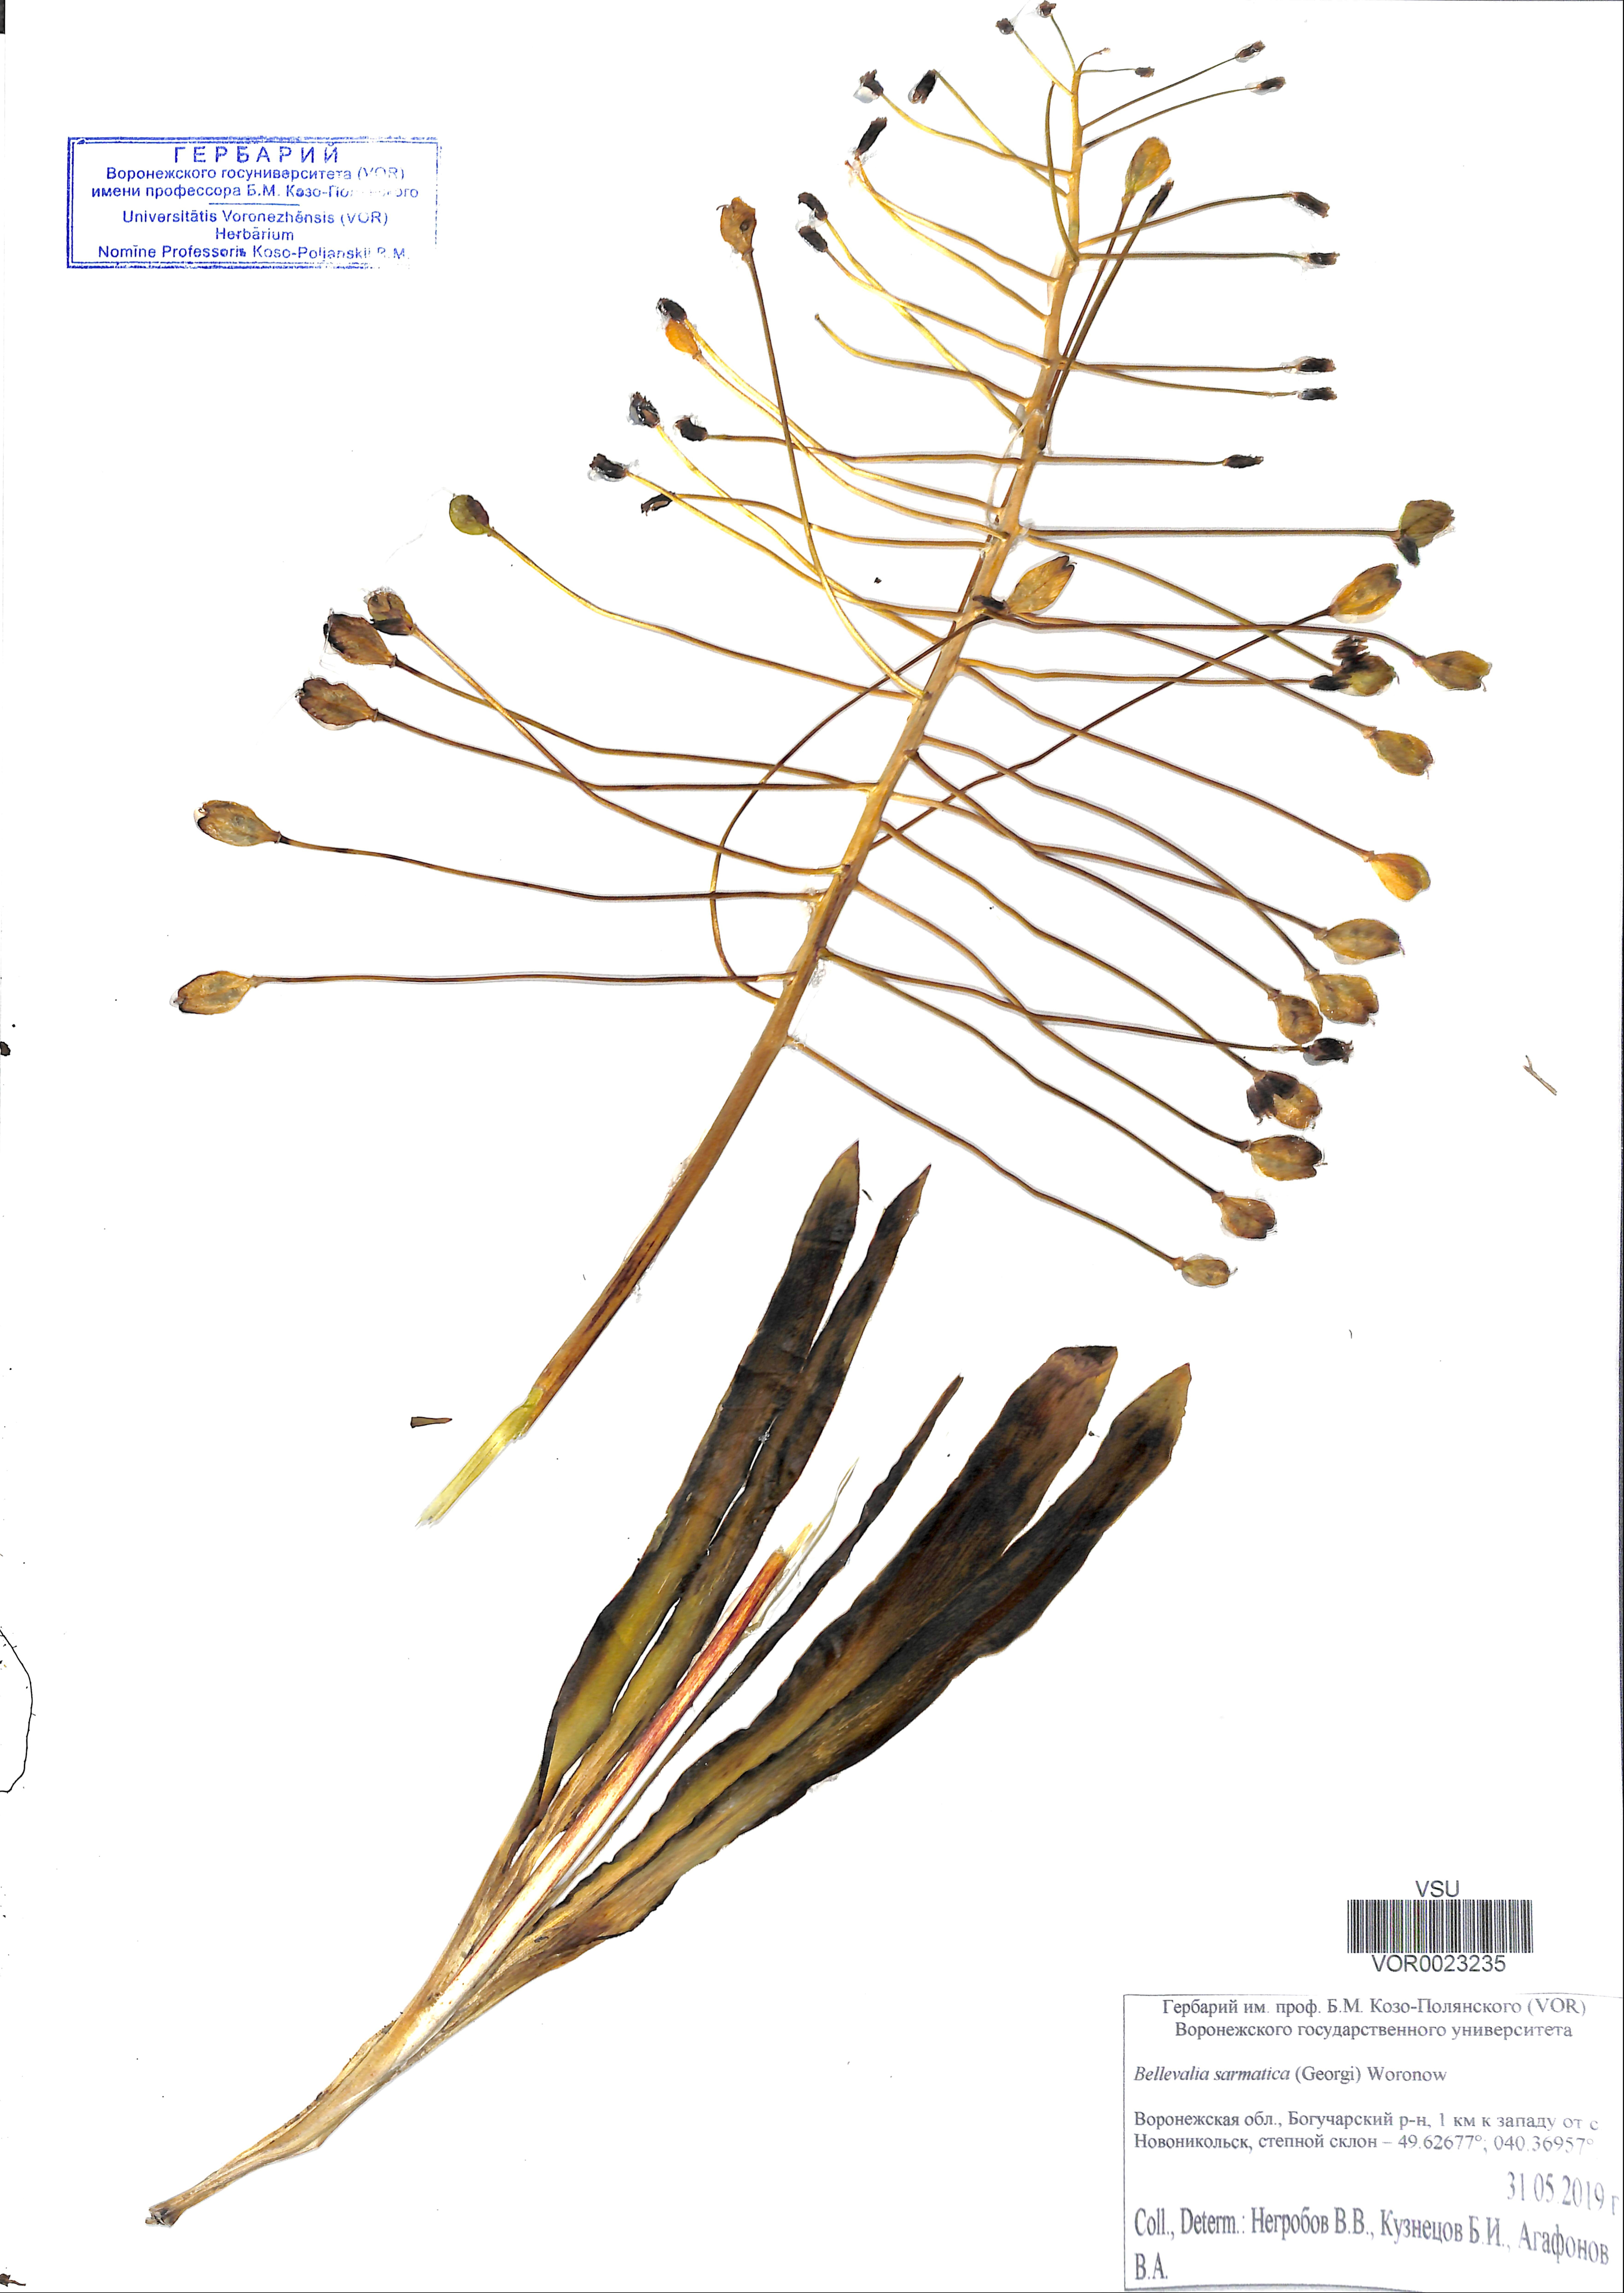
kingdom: Plantae
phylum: Tracheophyta
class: Liliopsida
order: Asparagales
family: Asparagaceae
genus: Bellevalia
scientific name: Bellevalia speciosa
